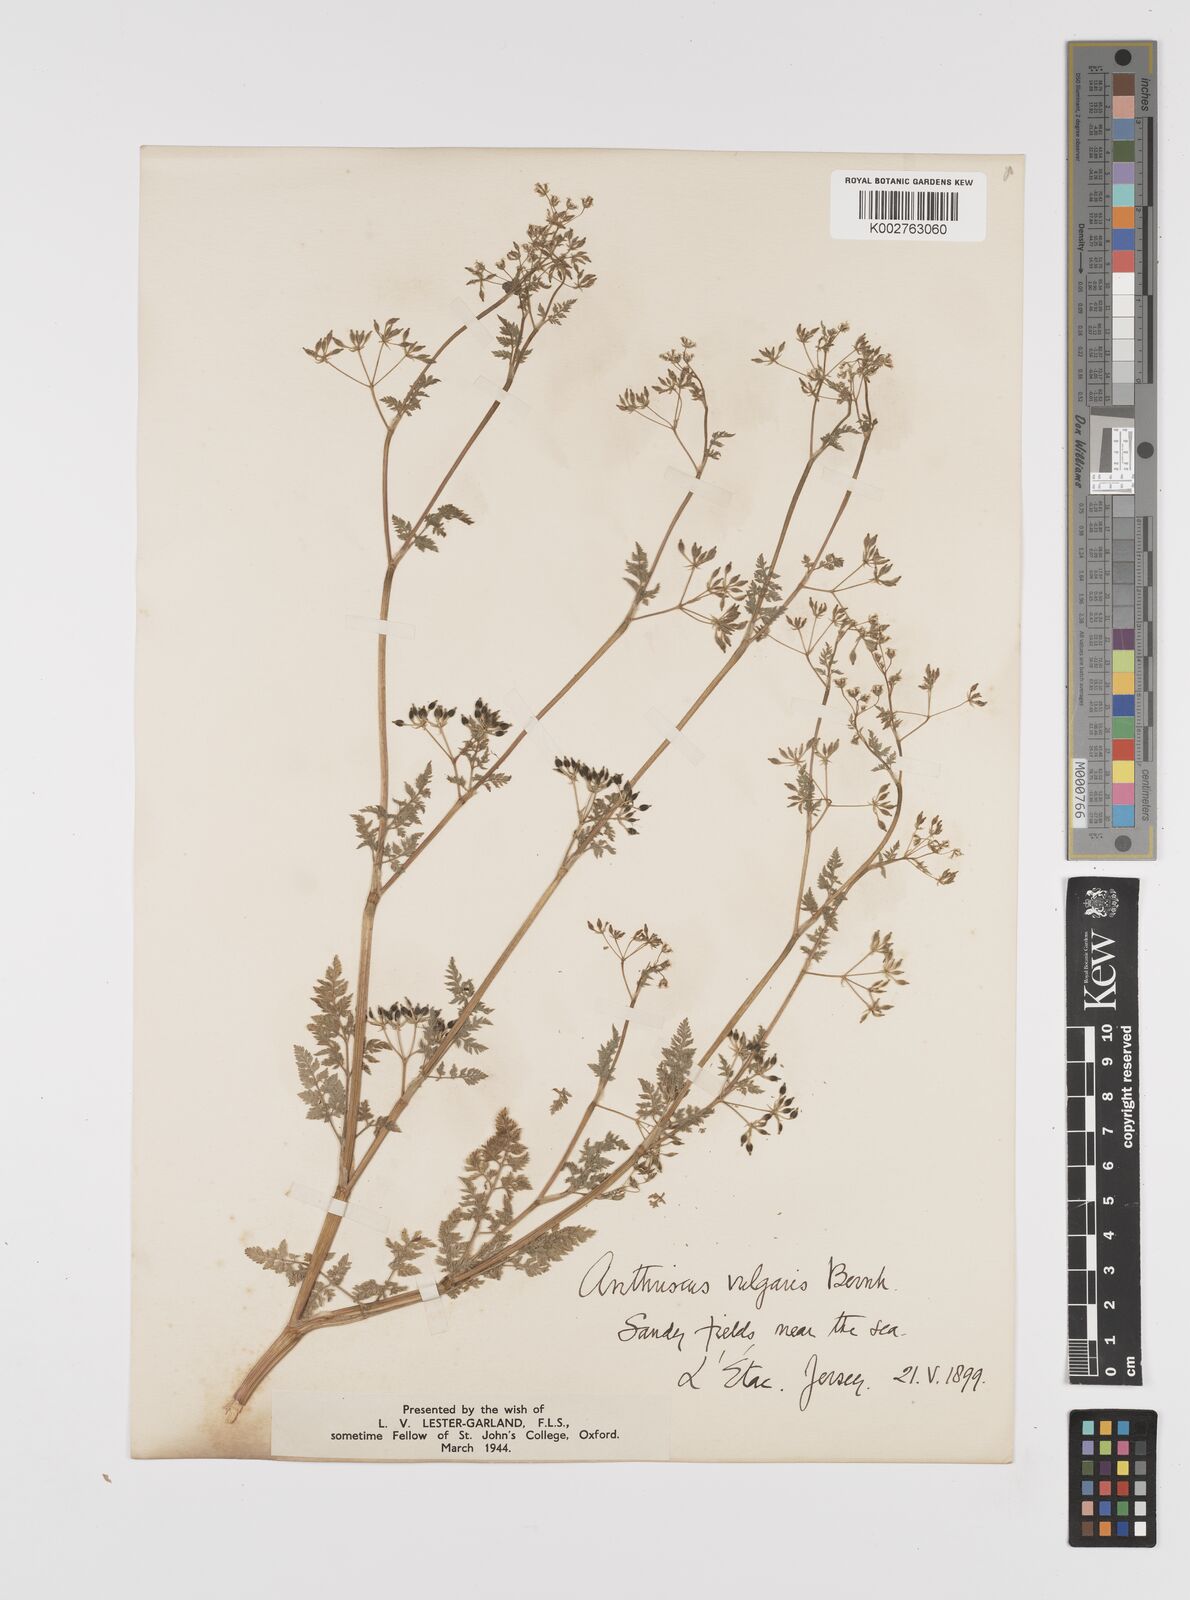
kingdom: Plantae
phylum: Tracheophyta
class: Magnoliopsida
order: Apiales
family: Apiaceae
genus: Anthriscus
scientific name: Anthriscus caucalis
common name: Bur chervil
